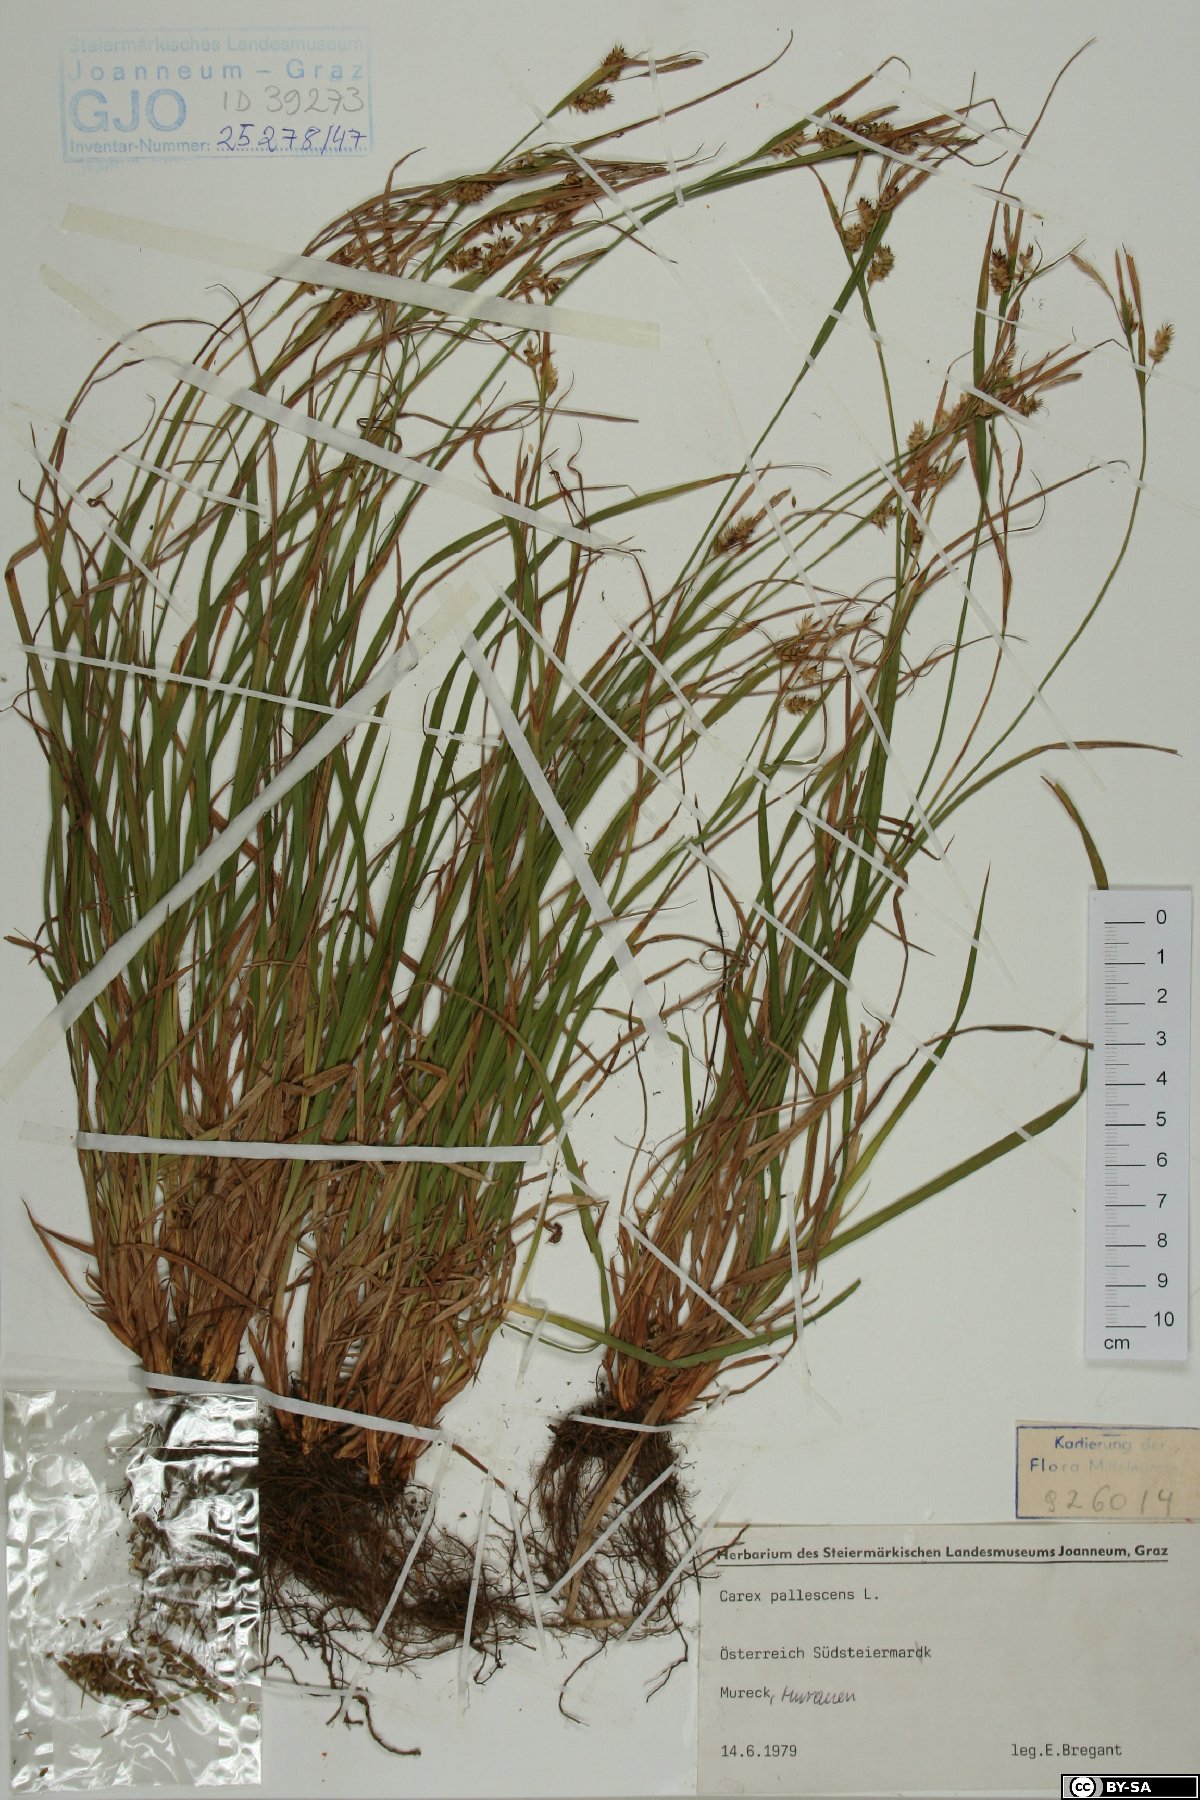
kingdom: Plantae
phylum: Tracheophyta
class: Liliopsida
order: Poales
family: Cyperaceae
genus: Carex
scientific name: Carex pallescens
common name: Pale sedge
